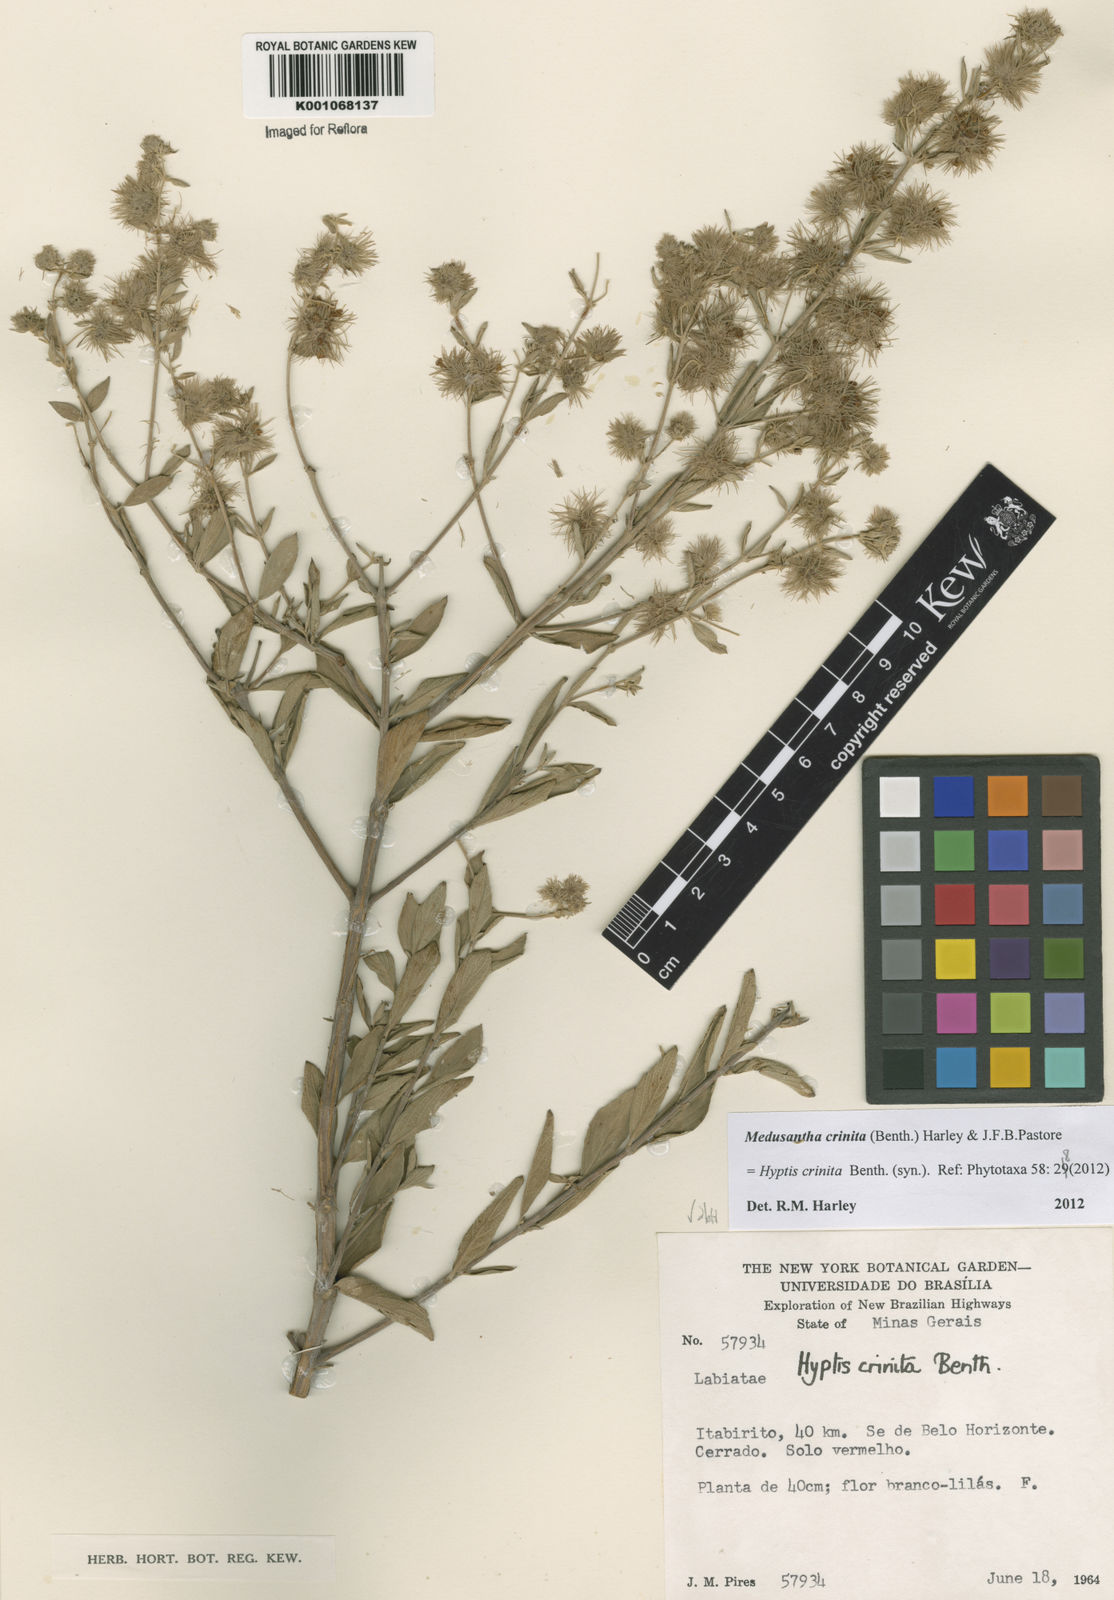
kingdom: Plantae
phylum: Tracheophyta
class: Magnoliopsida
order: Lamiales
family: Lamiaceae
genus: Medusantha
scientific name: Medusantha crinita
